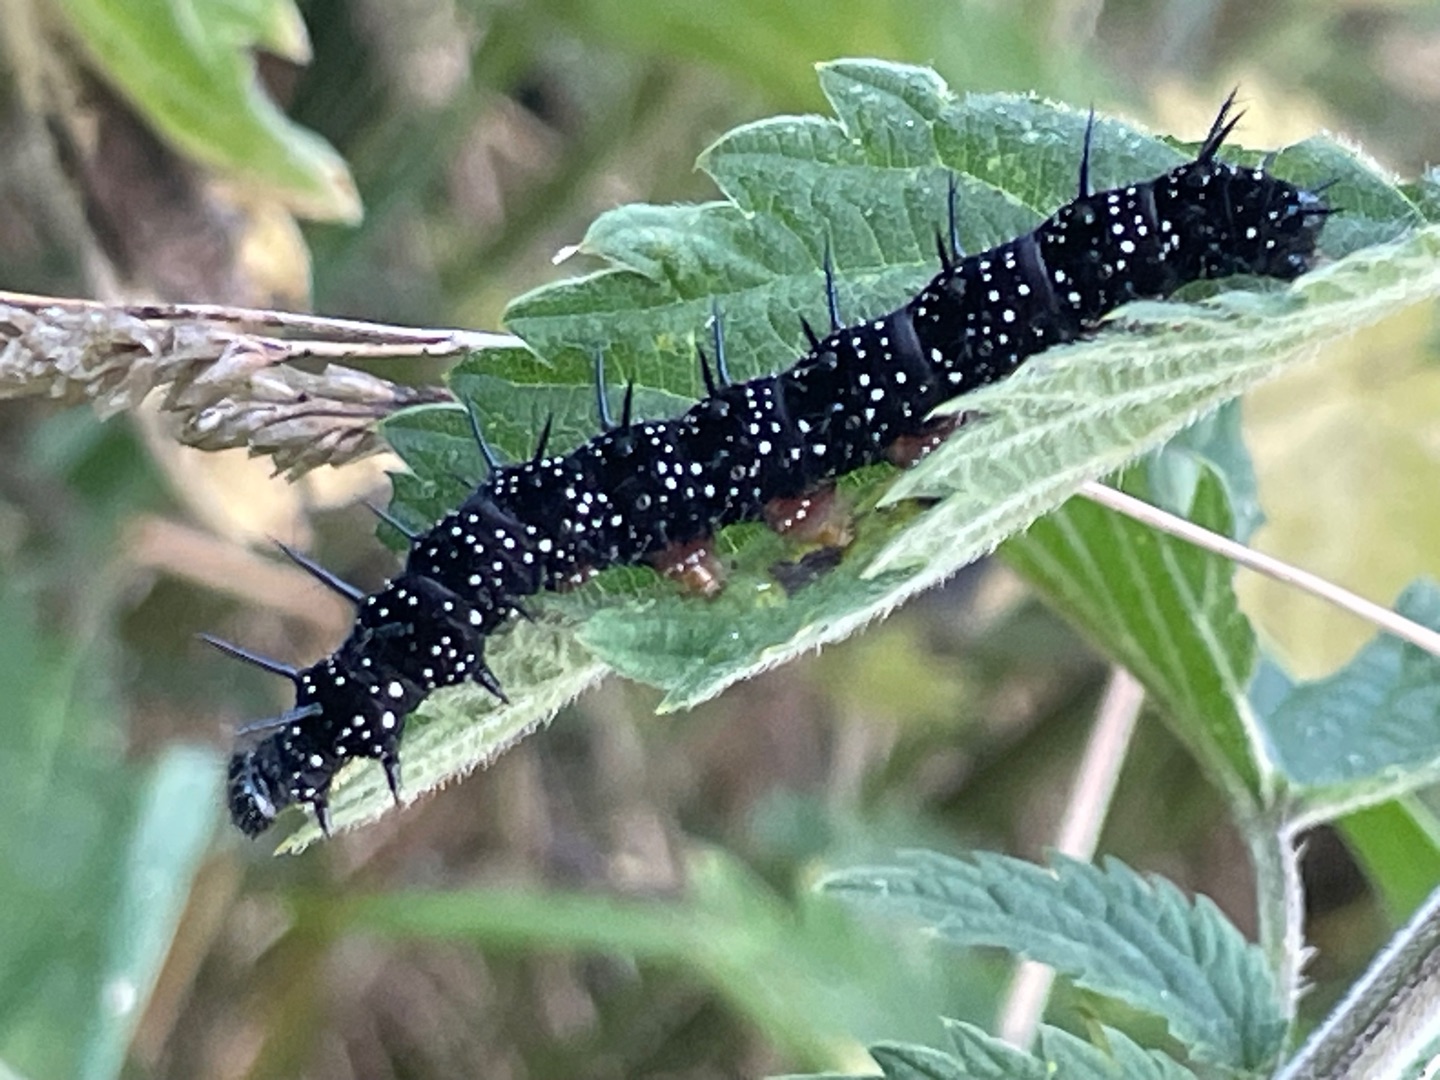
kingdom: Animalia
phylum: Arthropoda
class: Insecta
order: Lepidoptera
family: Nymphalidae
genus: Aglais
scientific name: Aglais io
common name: Dagpåfugleøje
